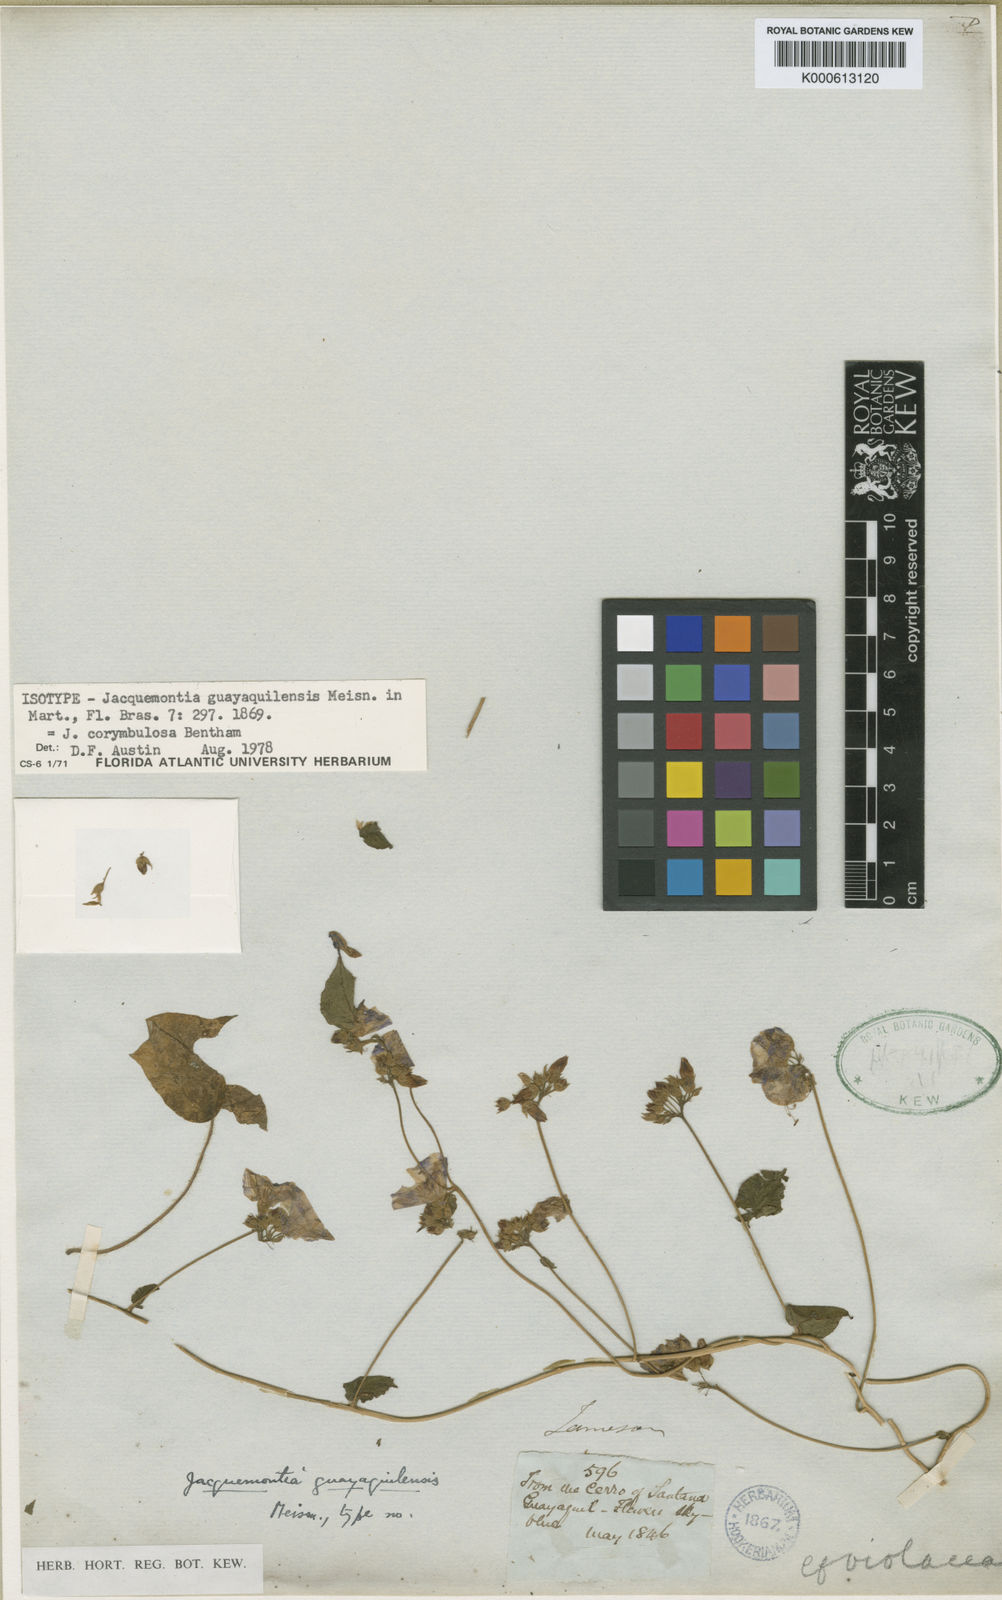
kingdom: Plantae
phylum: Tracheophyta
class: Magnoliopsida
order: Solanales
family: Convolvulaceae
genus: Jacquemontia
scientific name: Jacquemontia corymbulosa
